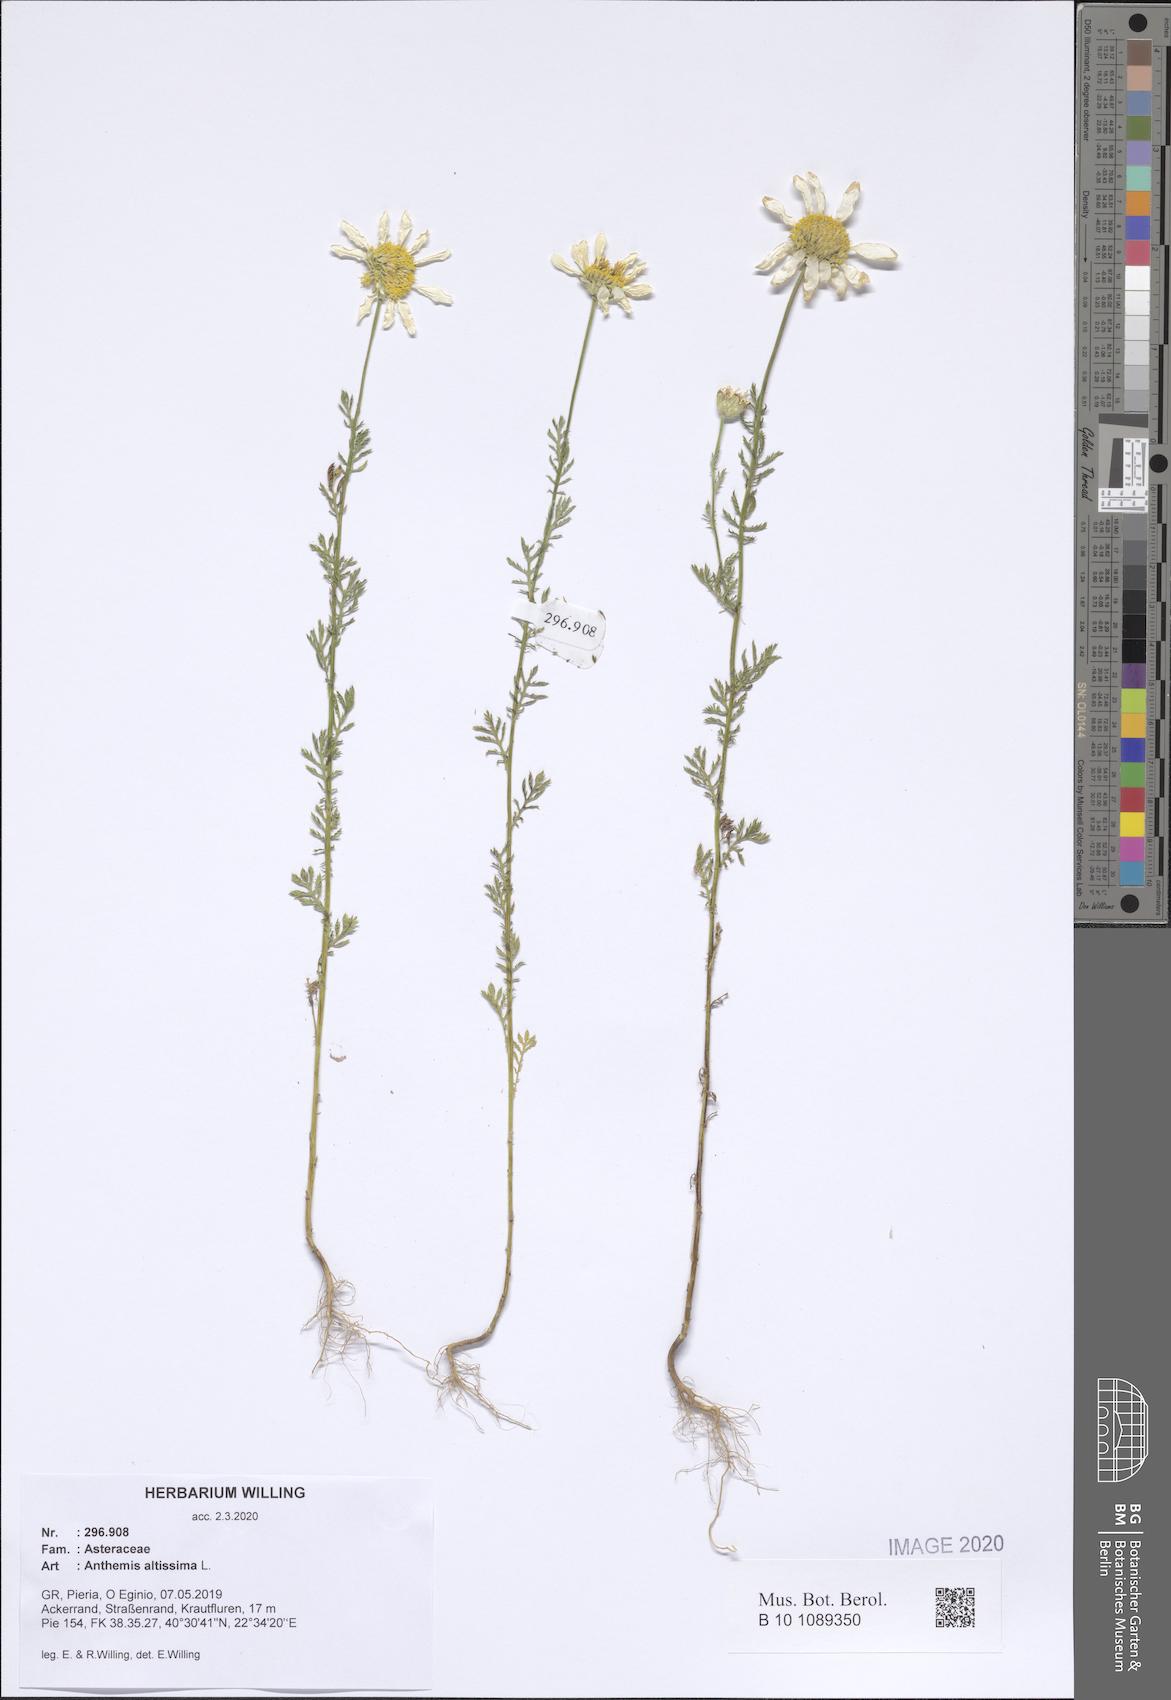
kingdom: Plantae
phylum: Tracheophyta
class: Magnoliopsida
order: Asterales
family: Asteraceae
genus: Cota
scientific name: Cota altissima
